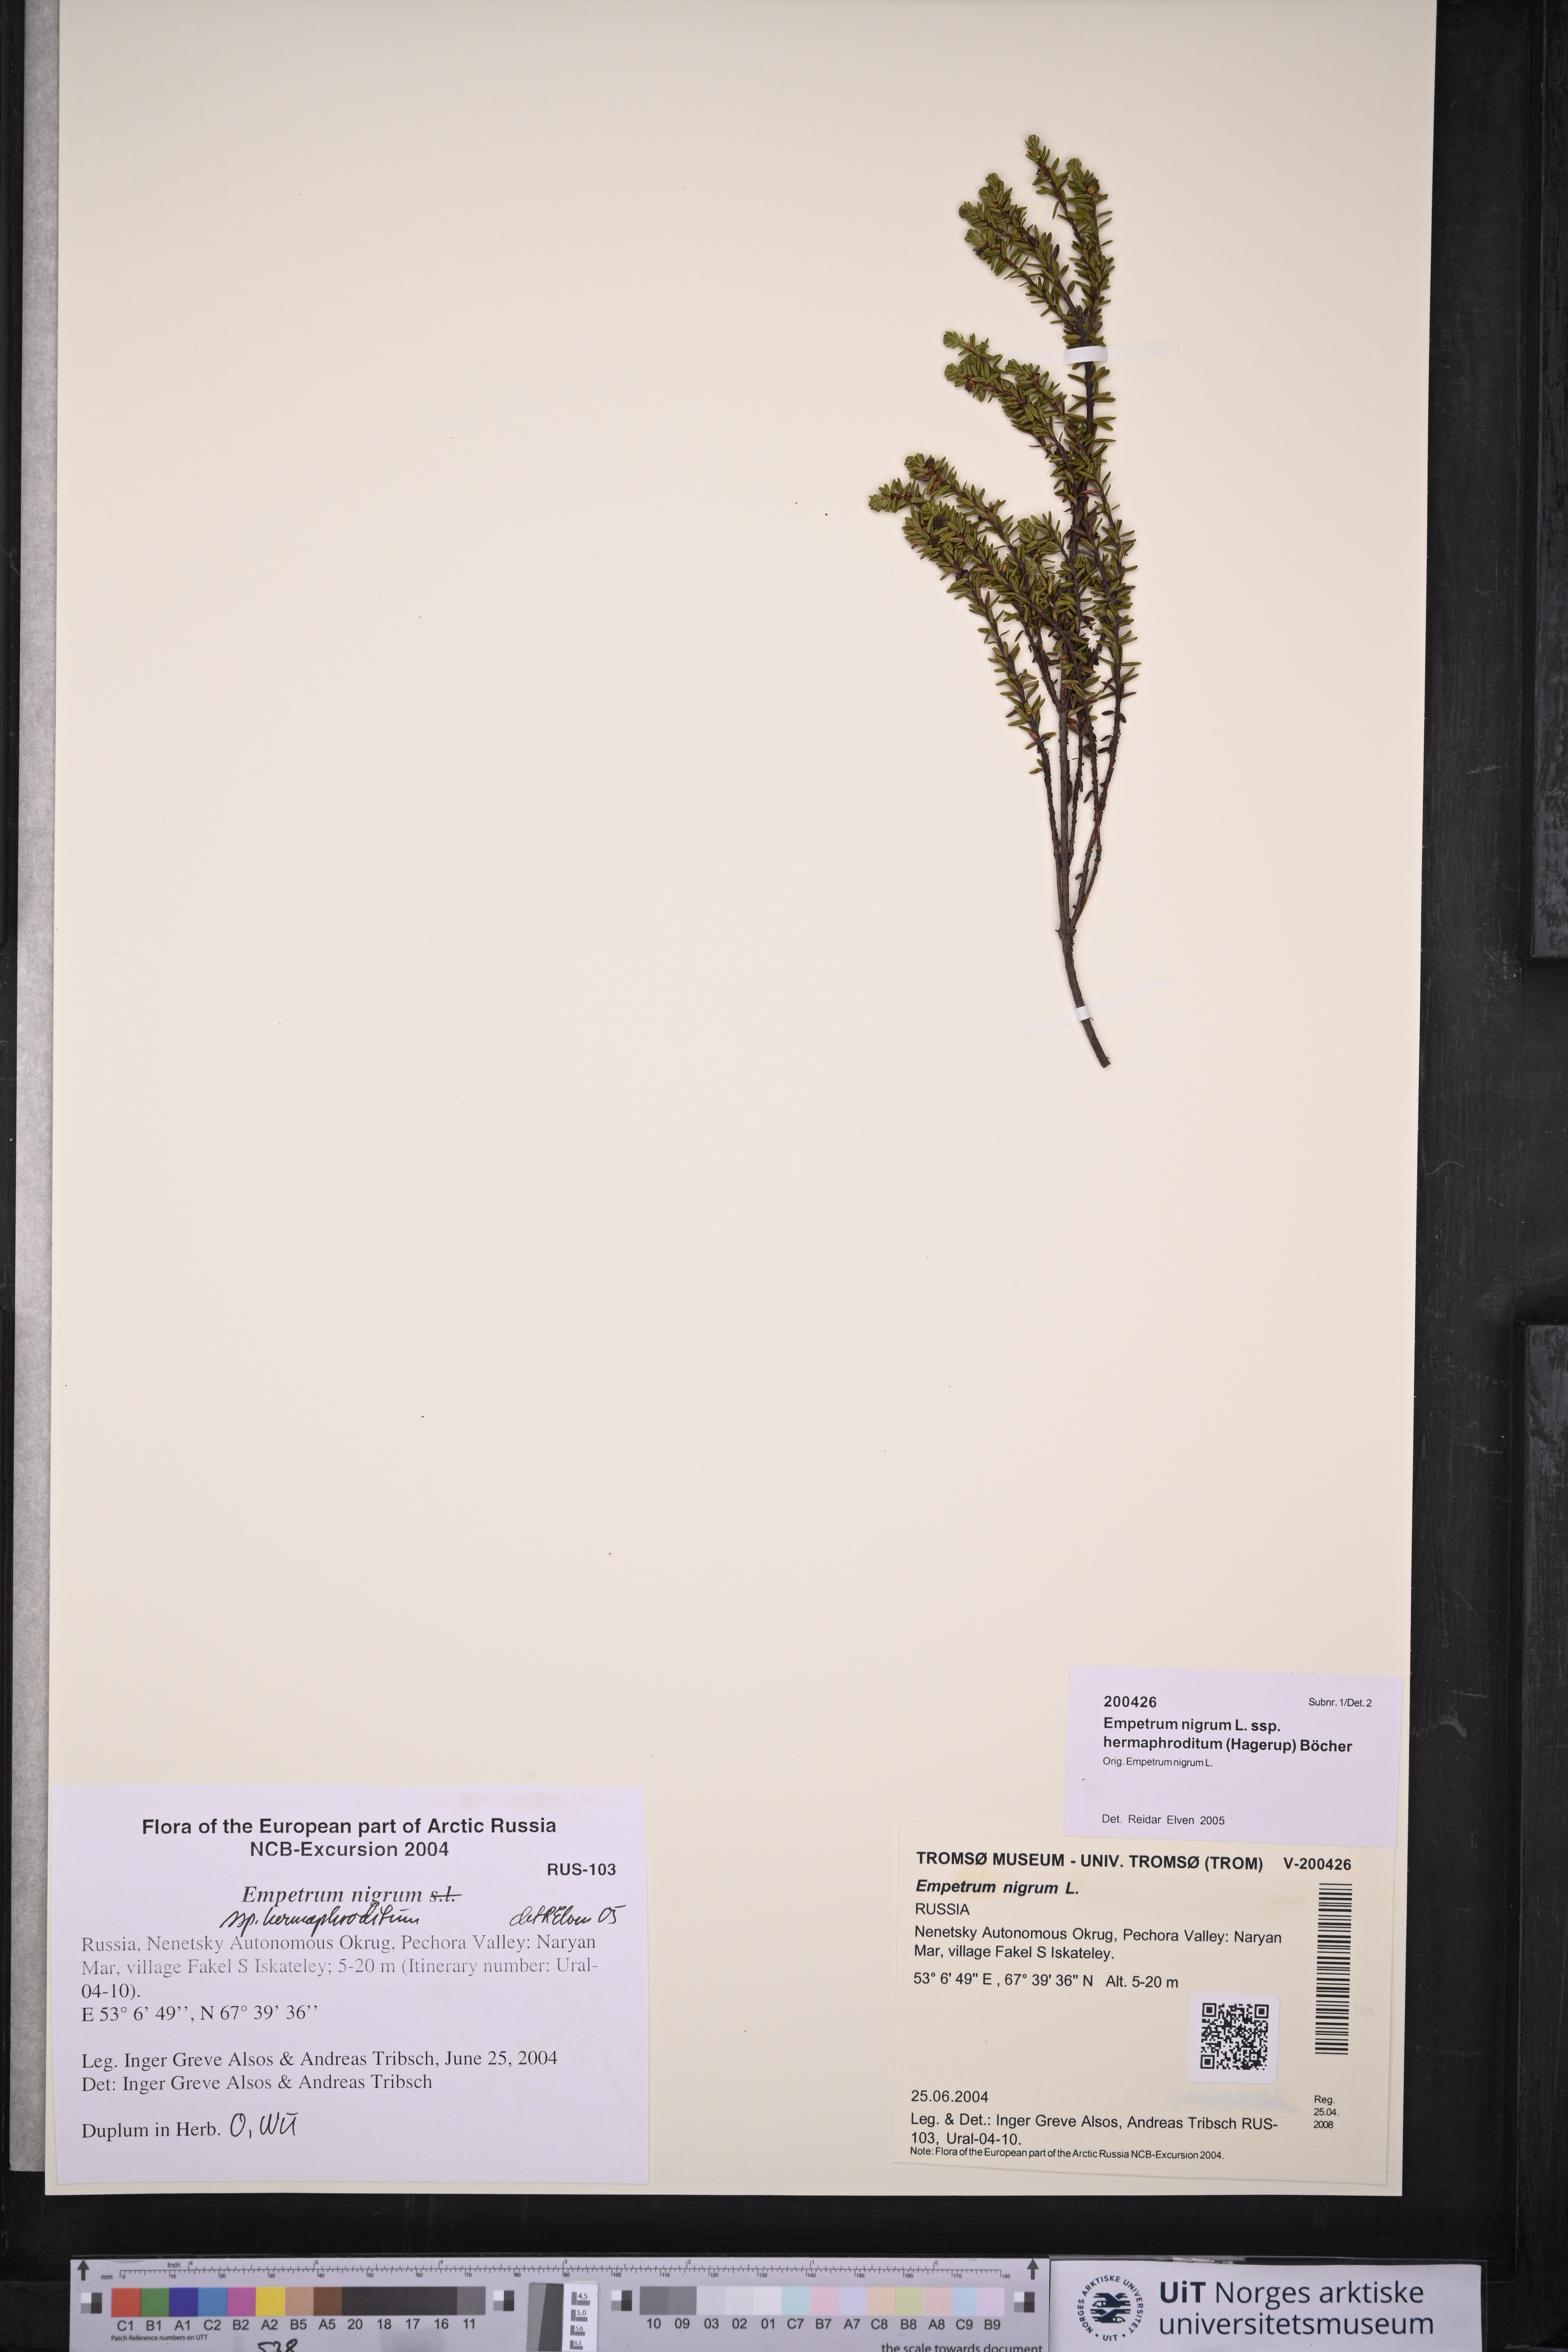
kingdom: Plantae
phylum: Tracheophyta
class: Magnoliopsida
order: Ericales
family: Ericaceae
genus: Empetrum
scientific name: Empetrum hermaphroditum
